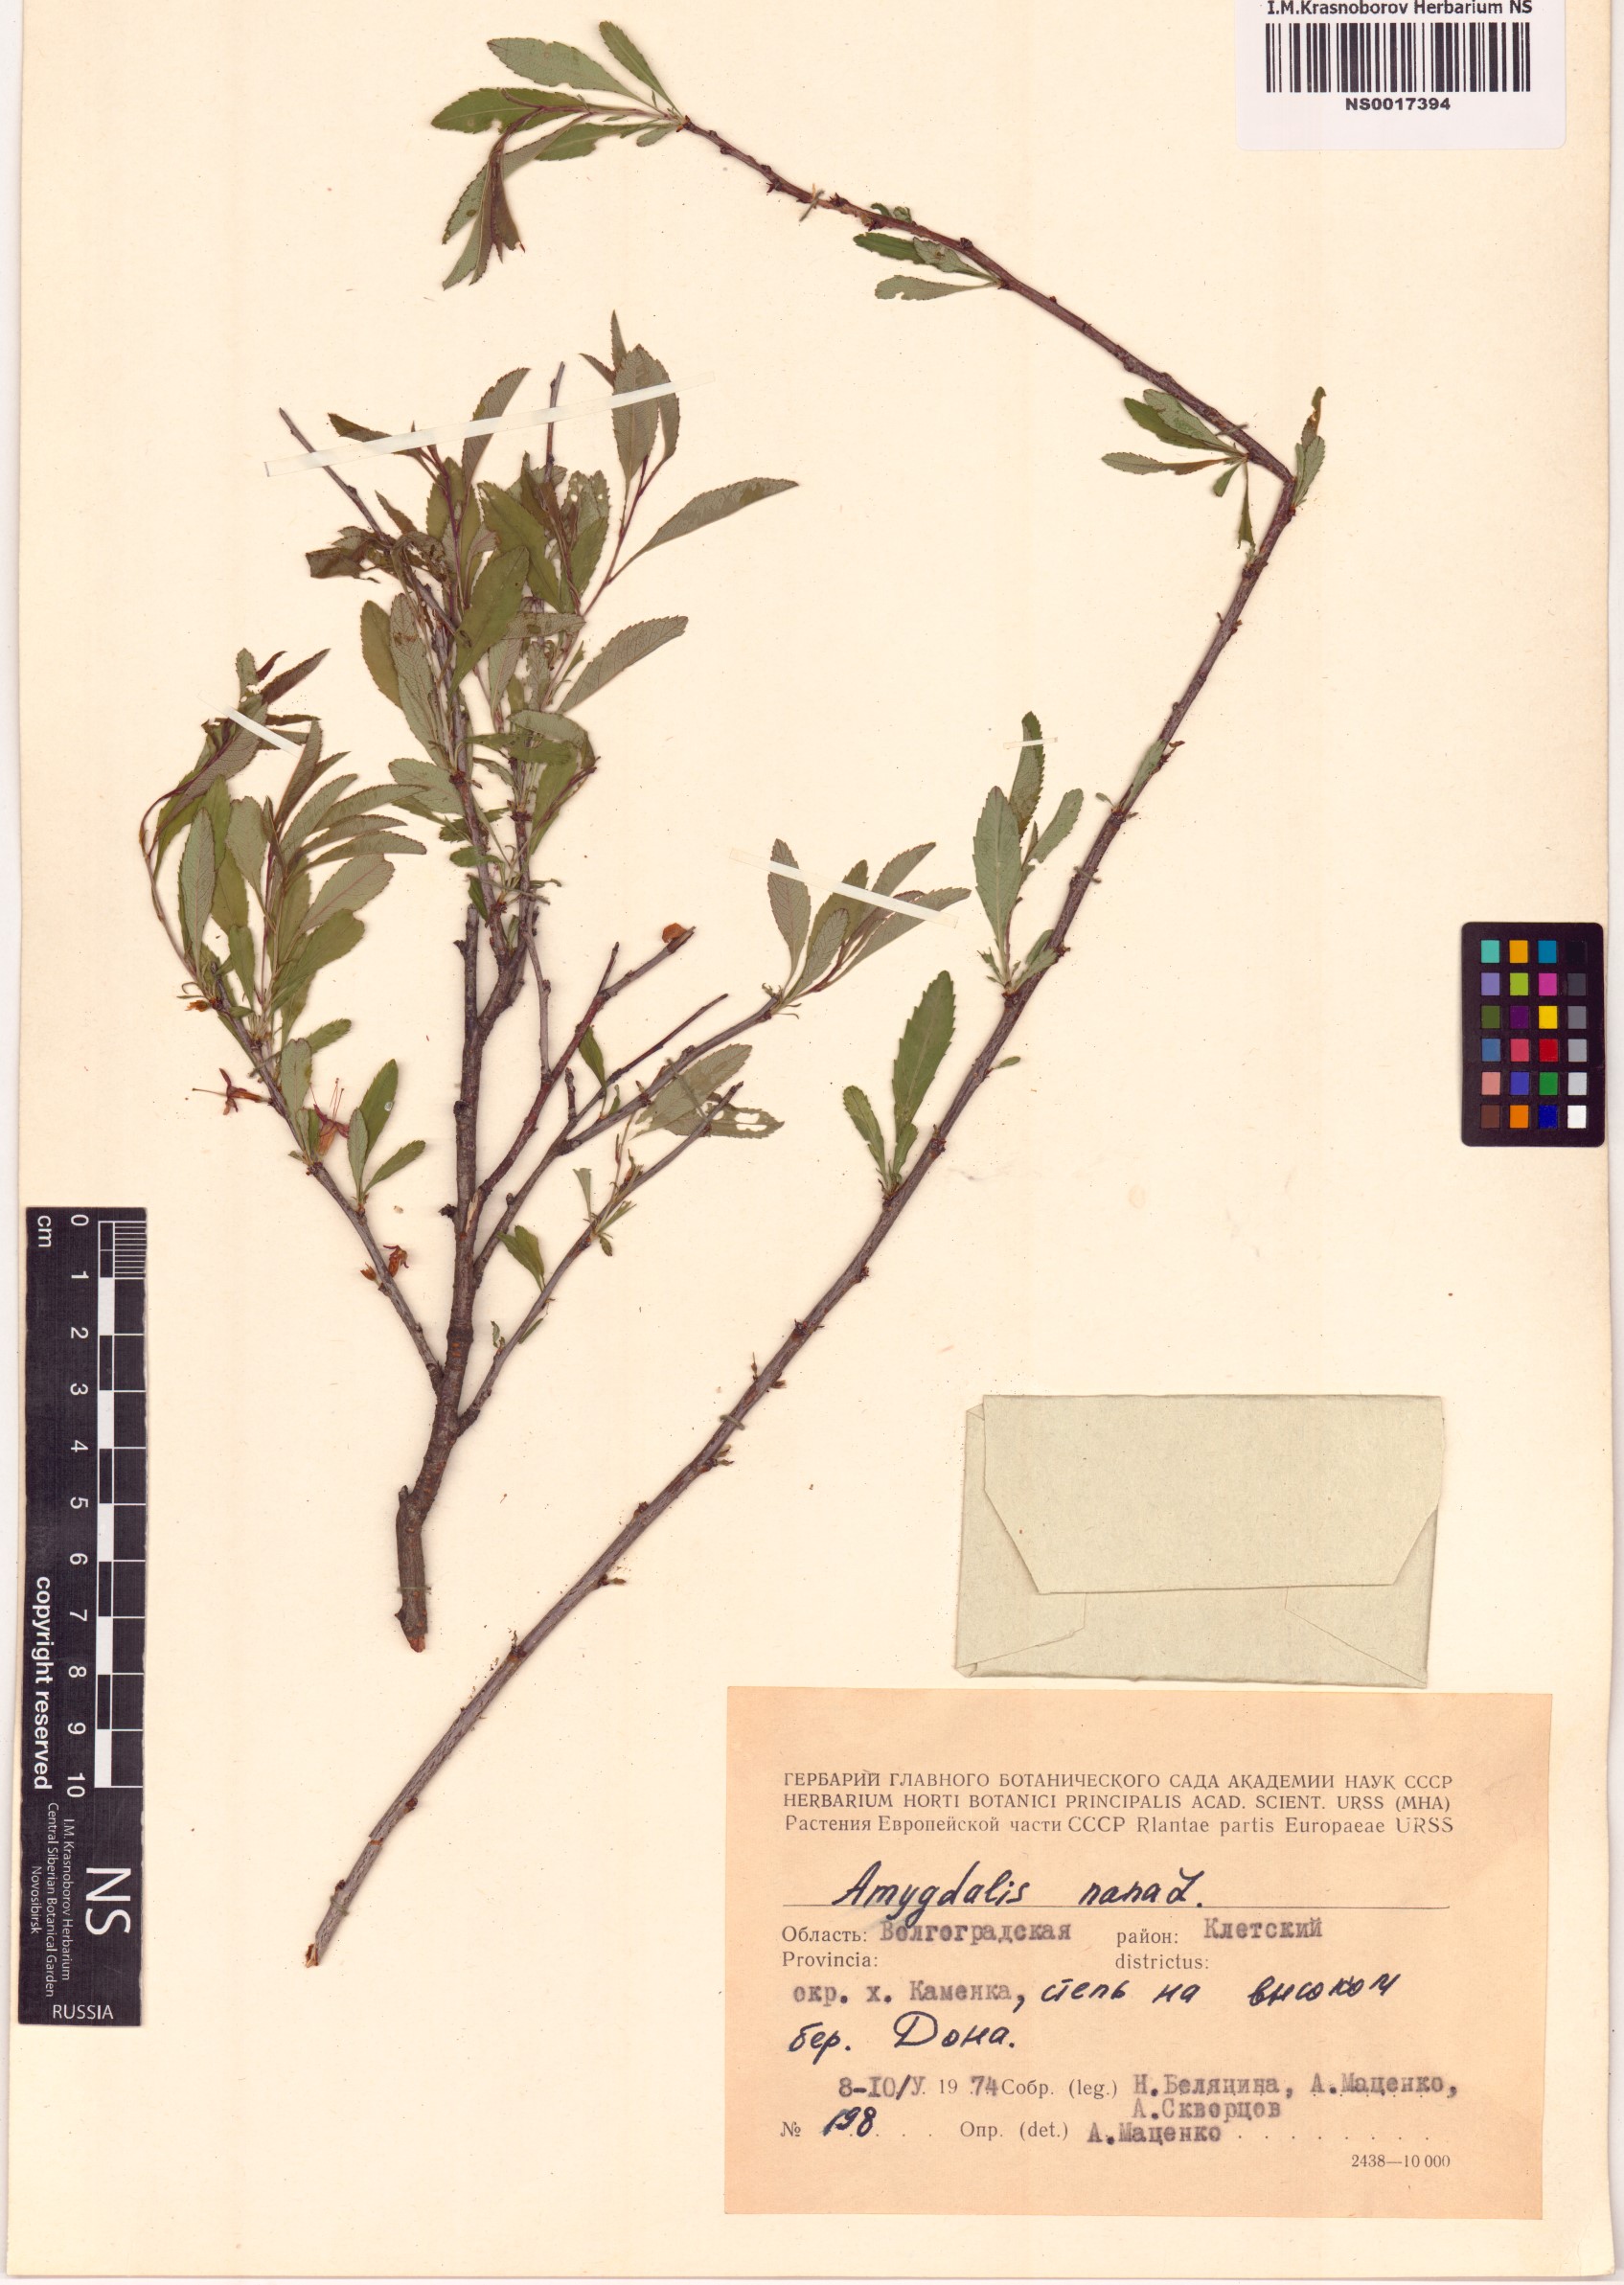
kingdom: Plantae
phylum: Tracheophyta
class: Magnoliopsida
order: Rosales
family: Rosaceae
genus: Prunus
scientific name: Prunus tenella
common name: Dwarf russian almond
